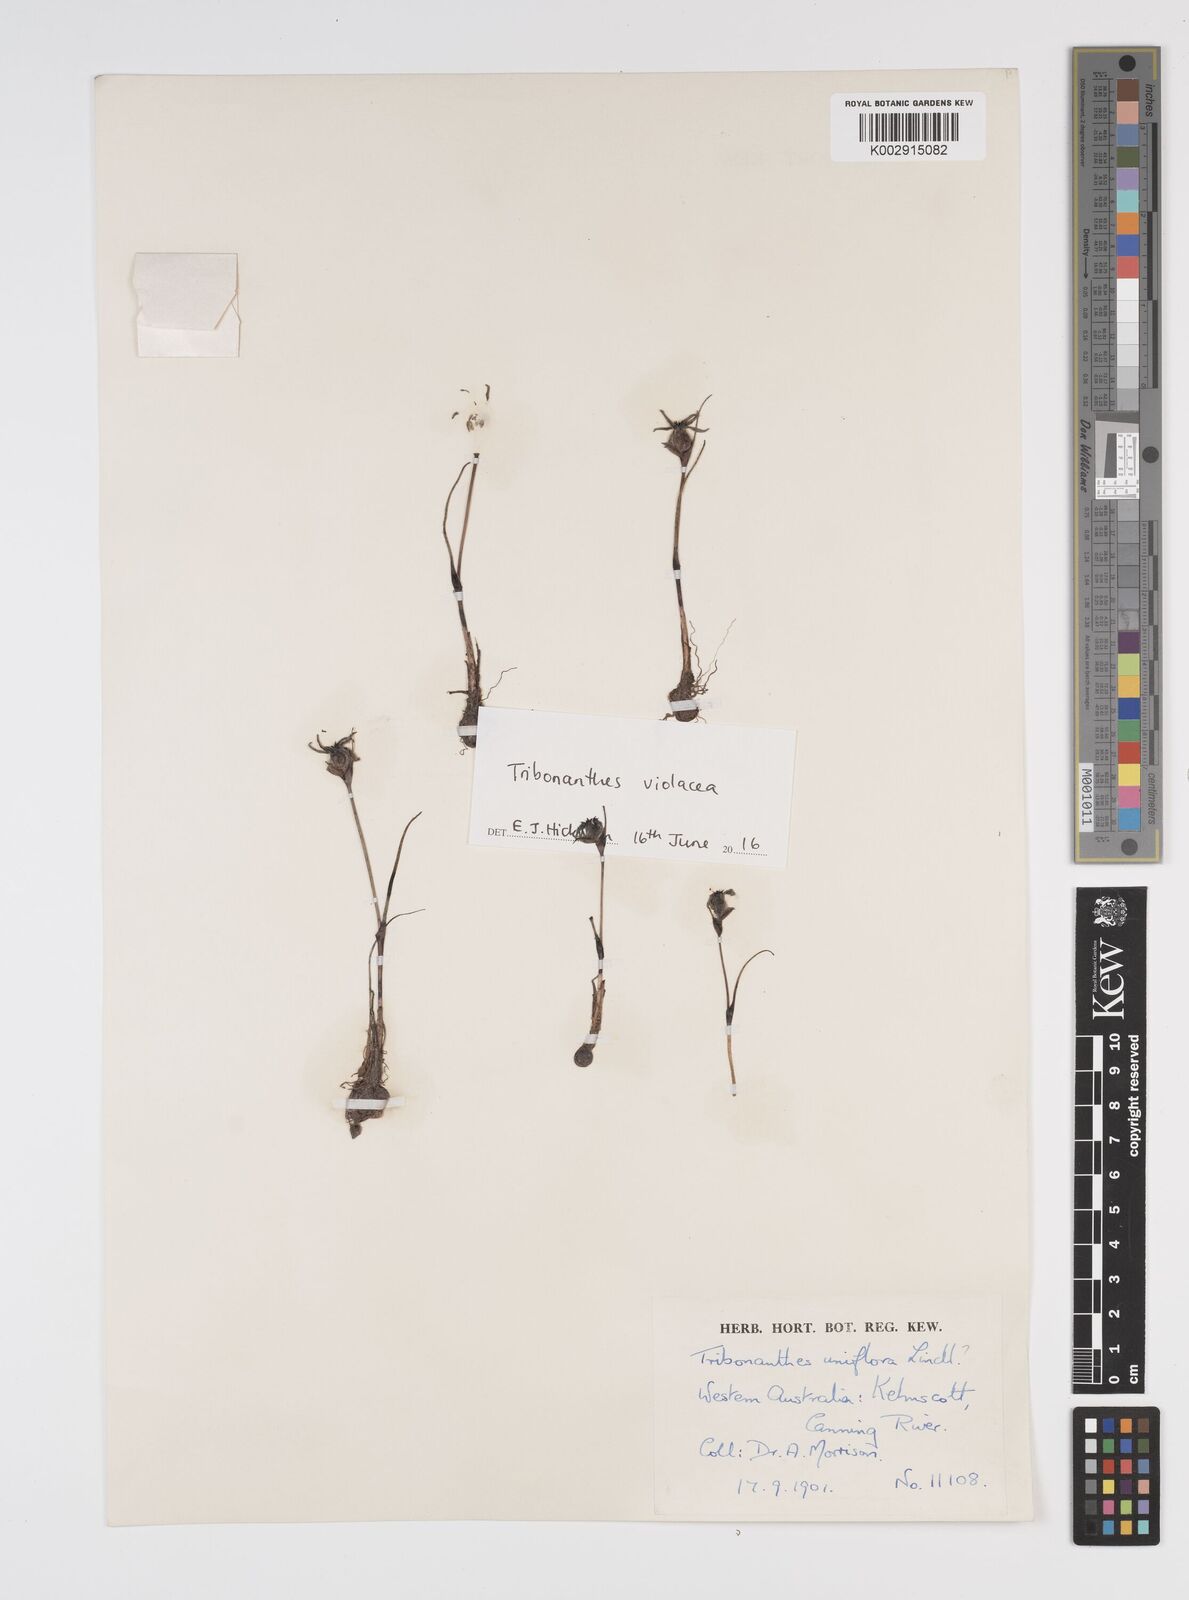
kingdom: Plantae
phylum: Tracheophyta
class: Liliopsida
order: Commelinales
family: Haemodoraceae
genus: Tribonanthes
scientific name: Tribonanthes uniflora
